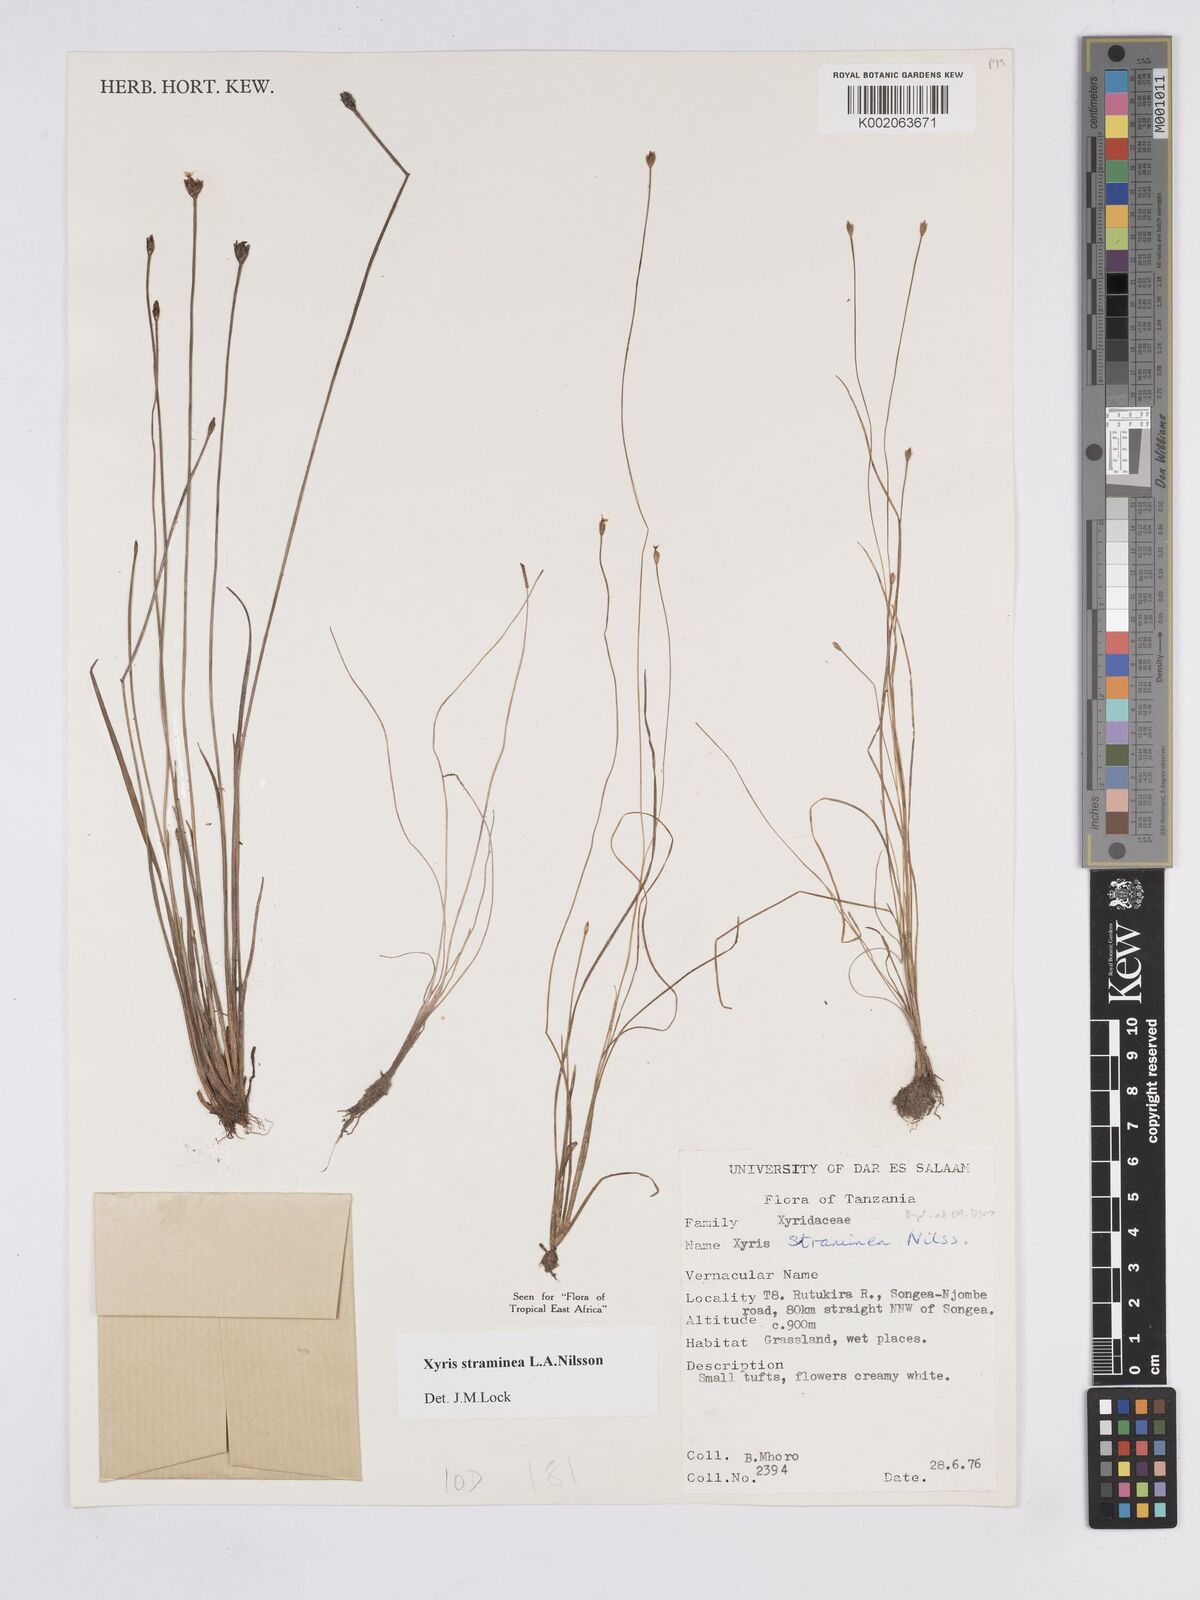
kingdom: Plantae
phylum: Tracheophyta
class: Liliopsida
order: Poales
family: Xyridaceae
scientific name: Xyridaceae
